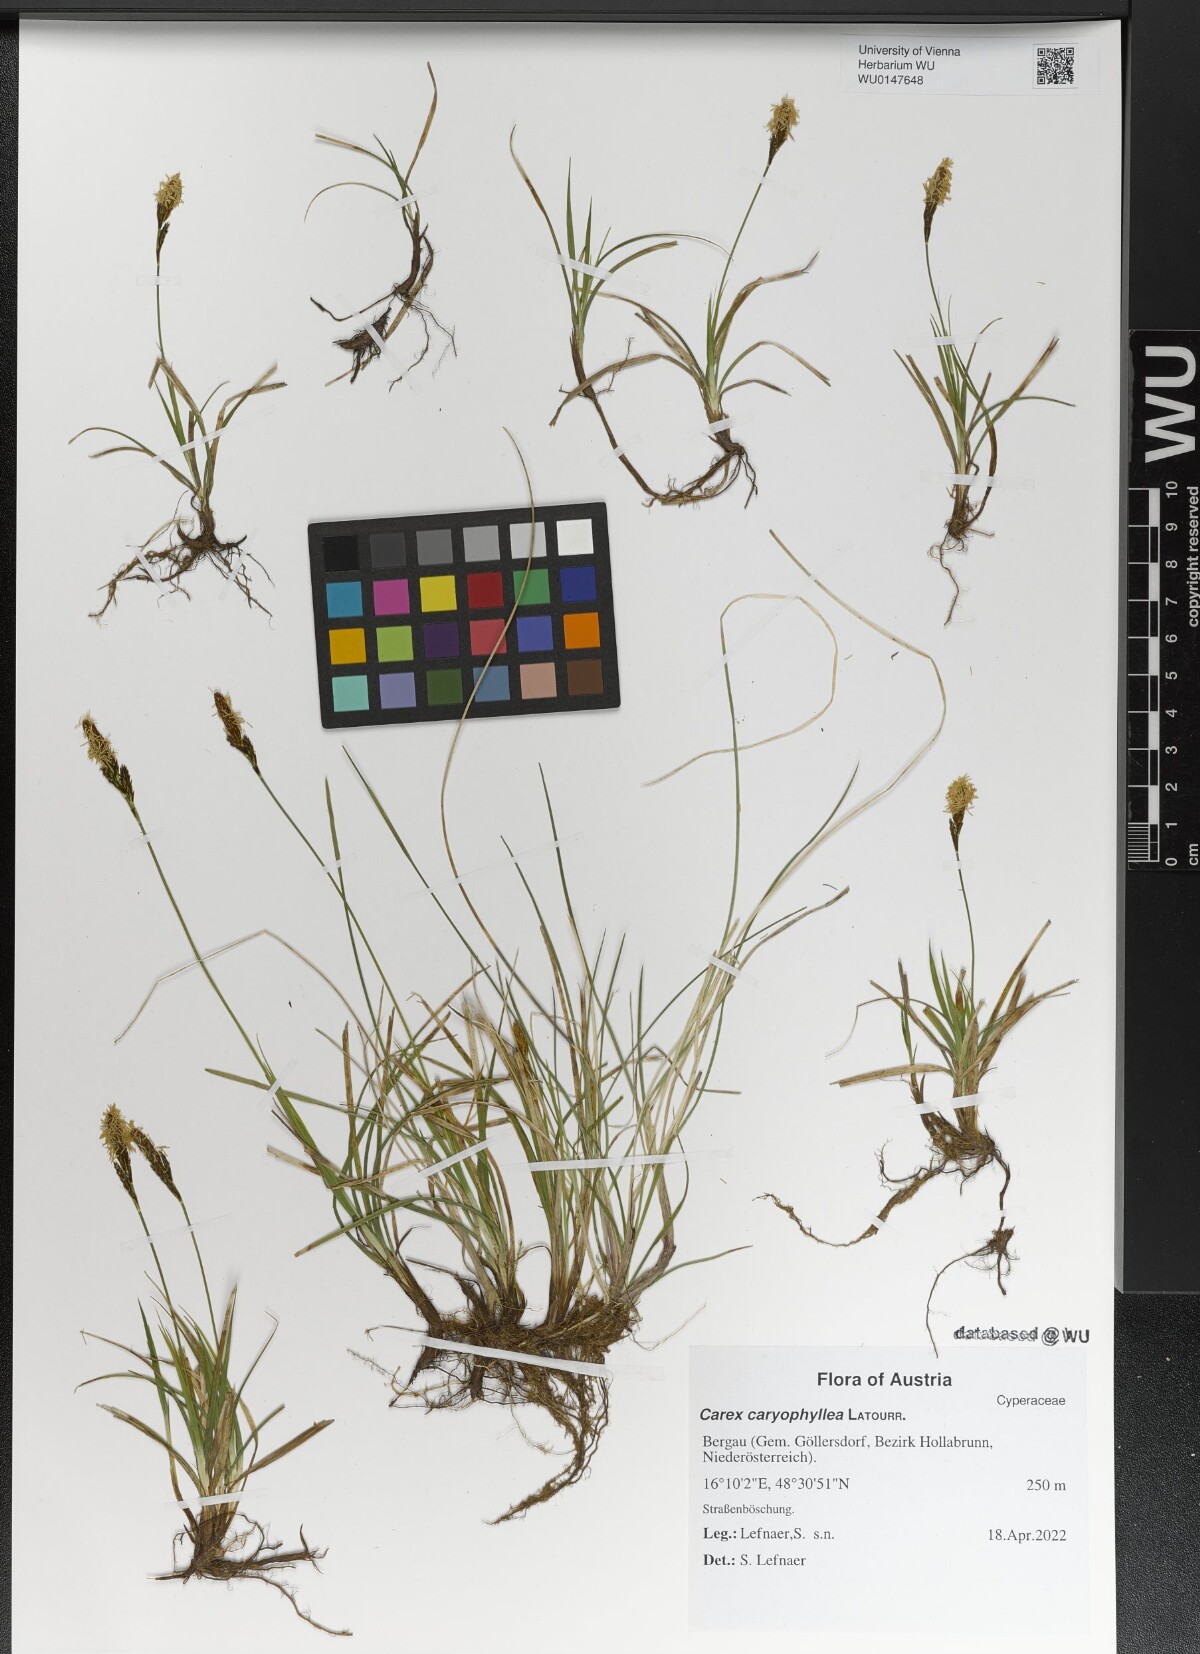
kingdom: Plantae
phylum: Tracheophyta
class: Liliopsida
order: Poales
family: Cyperaceae
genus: Carex
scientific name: Carex caryophyllea
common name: Spring sedge
